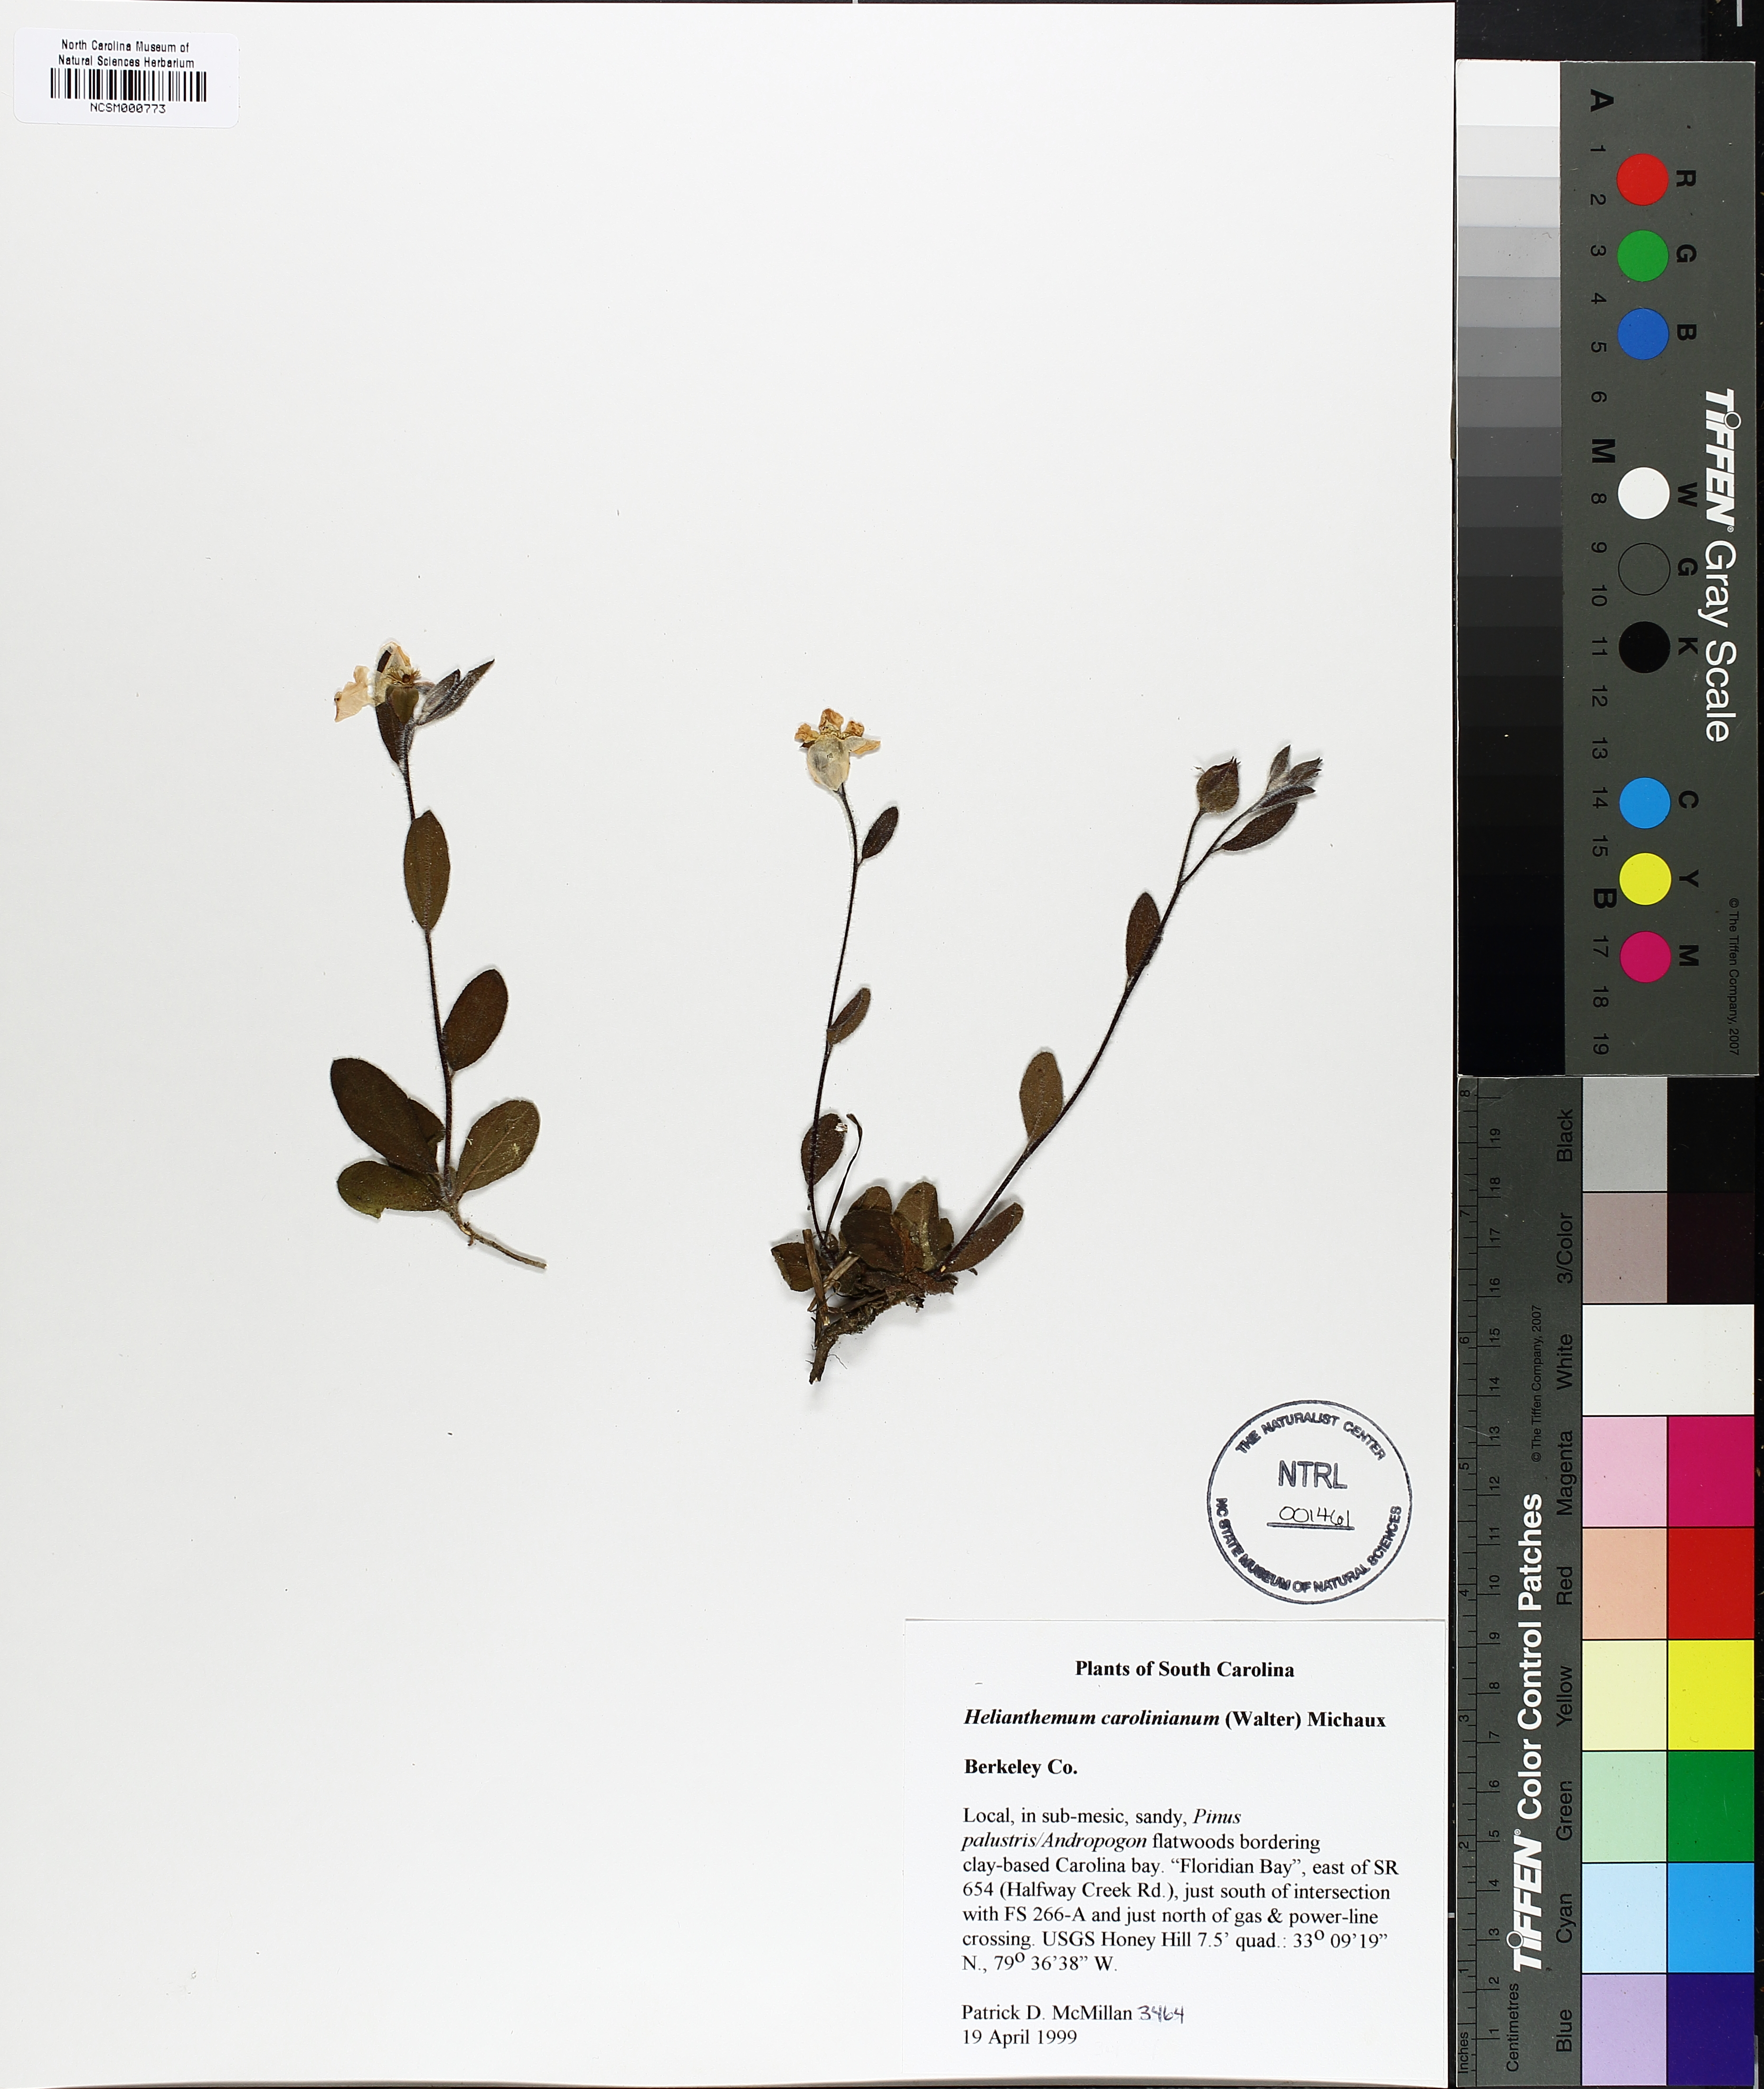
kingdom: Plantae
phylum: Tracheophyta
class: Magnoliopsida
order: Malvales
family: Cistaceae
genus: Crocanthemum
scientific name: Crocanthemum carolinianum
